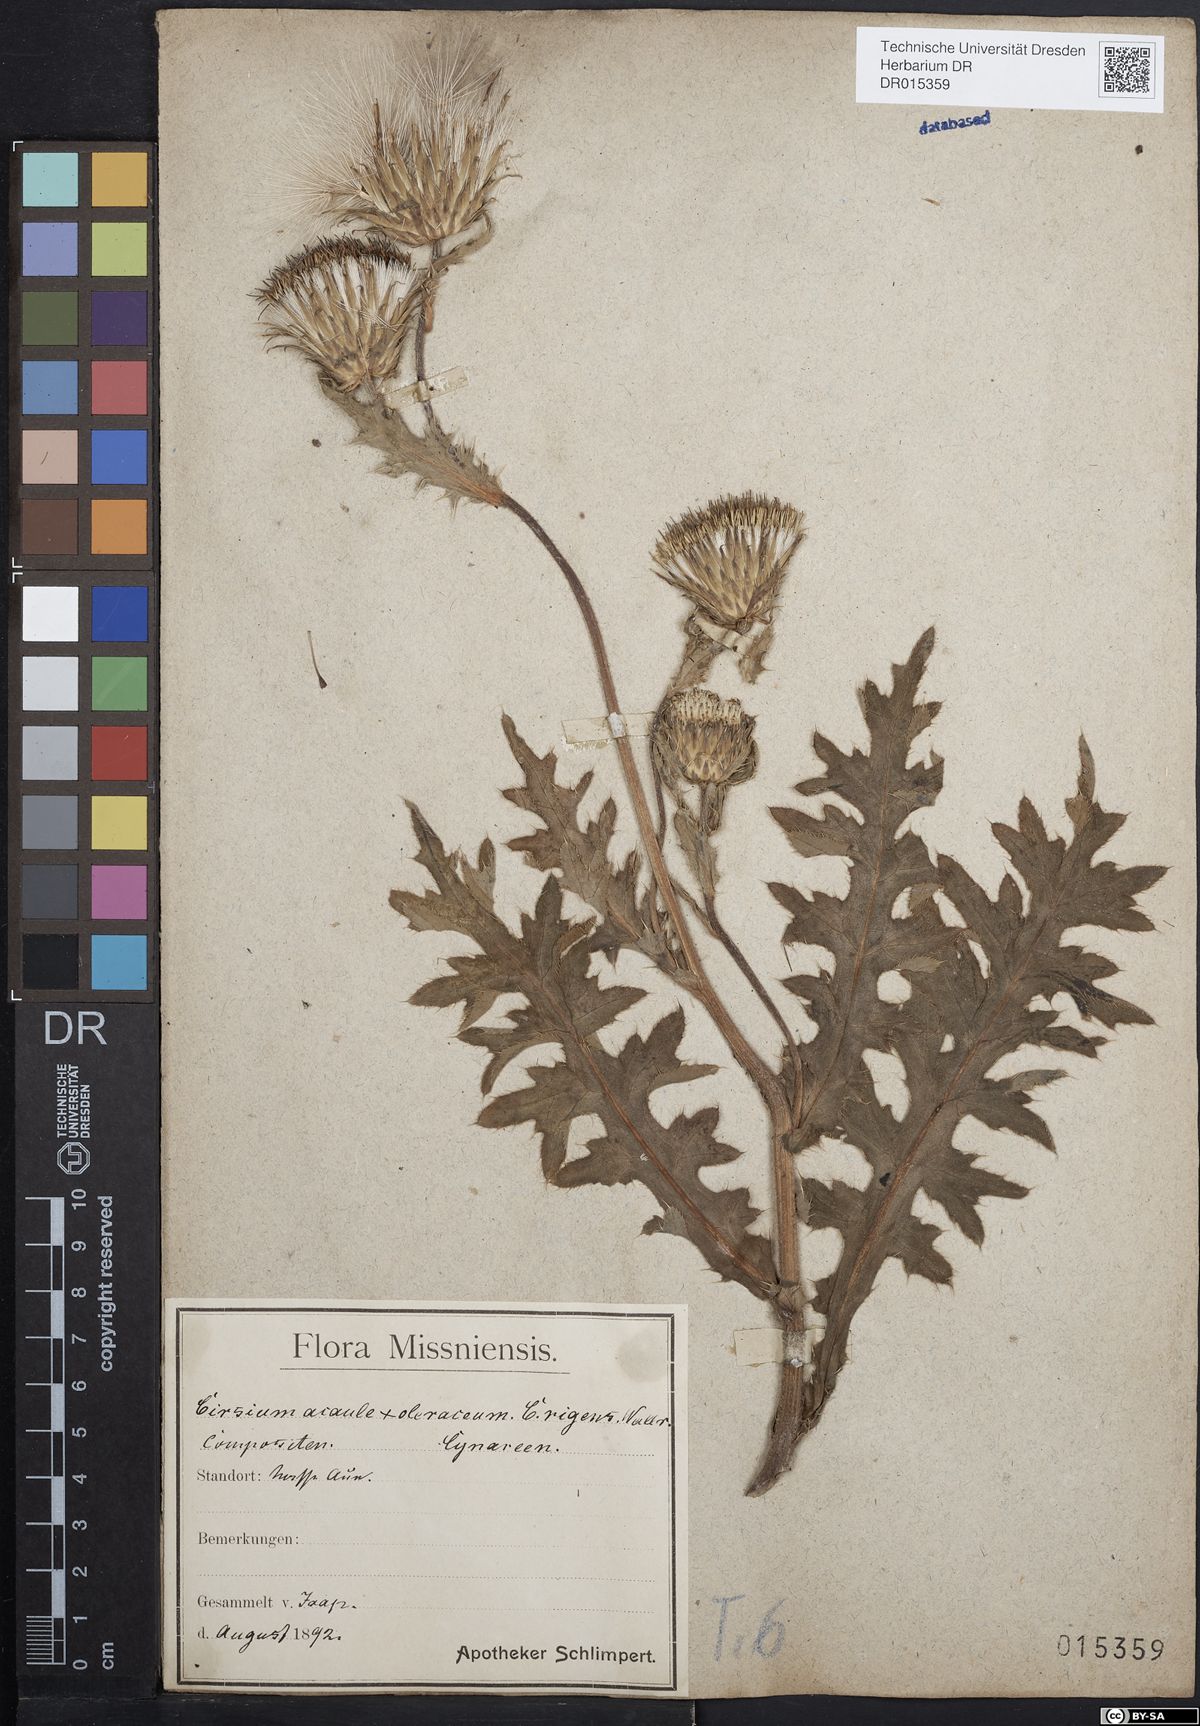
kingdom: Plantae
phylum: Tracheophyta
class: Magnoliopsida
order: Asterales
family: Asteraceae
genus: Cirsium
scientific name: Cirsium rigens
